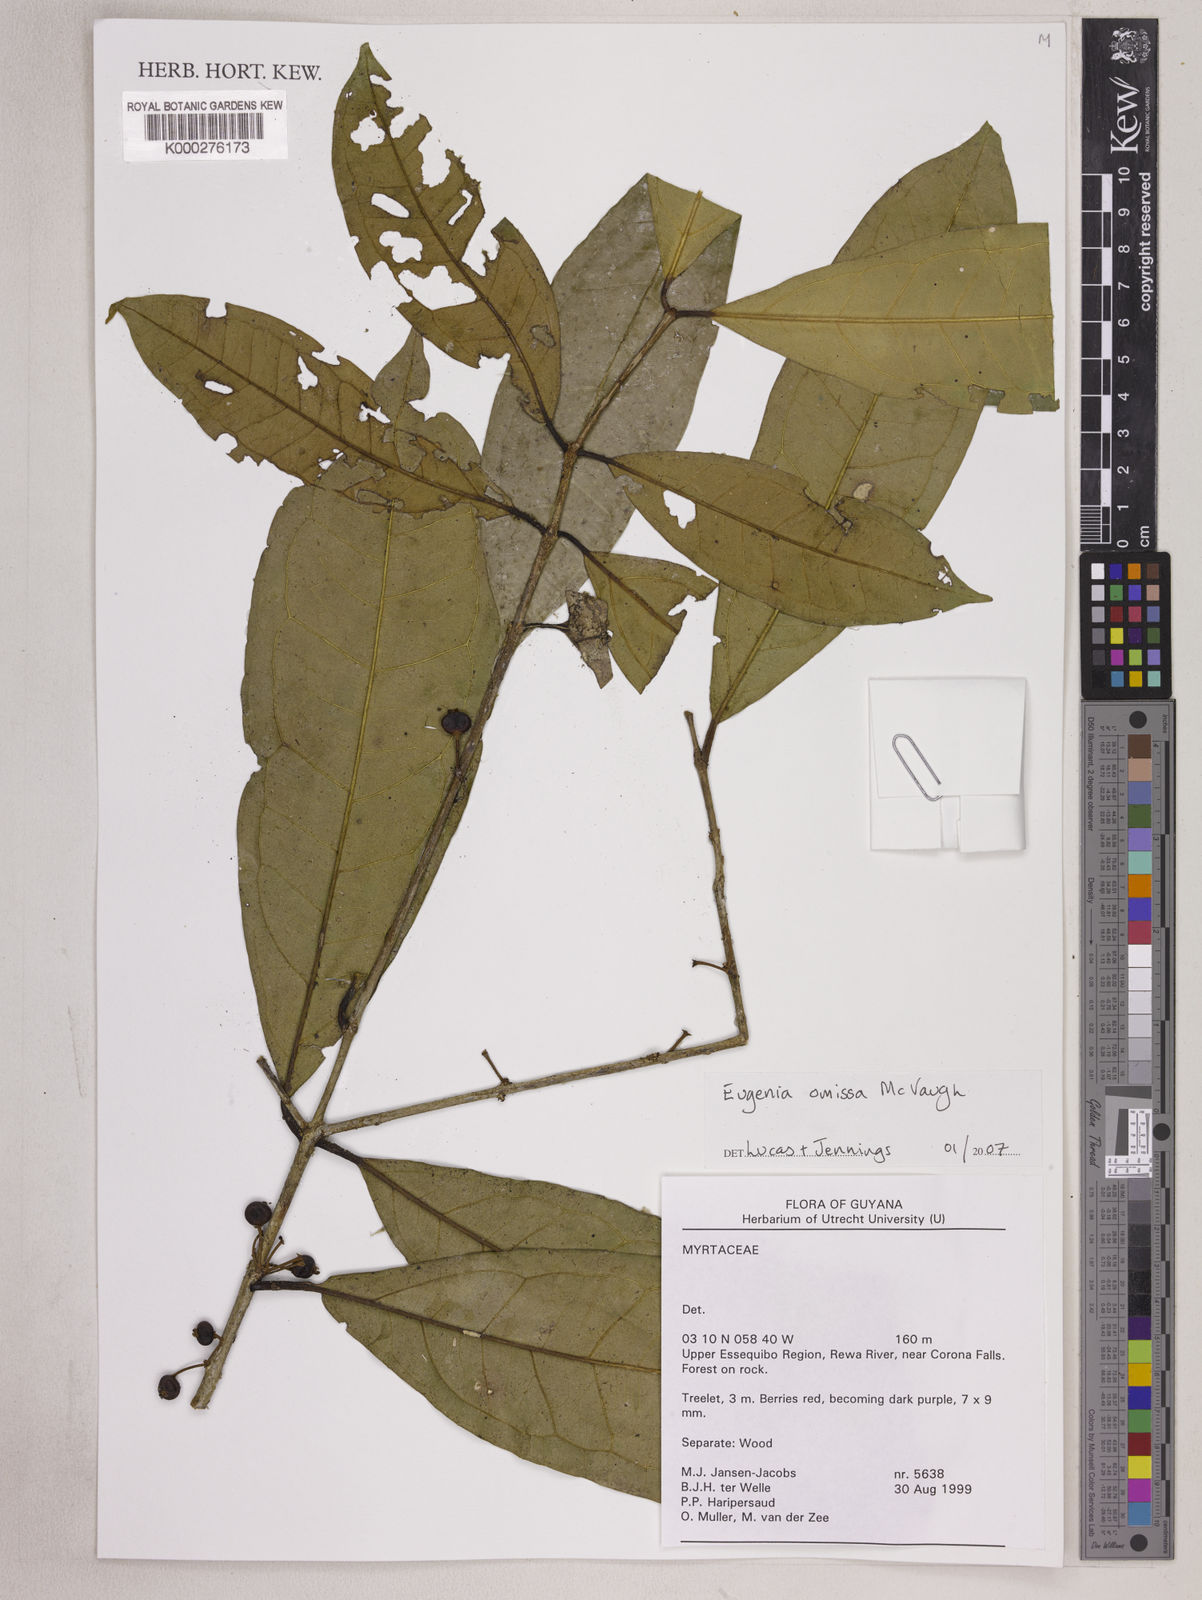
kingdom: Plantae
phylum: Tracheophyta
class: Magnoliopsida
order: Myrtales
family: Myrtaceae
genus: Eugenia
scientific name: Eugenia omissa
